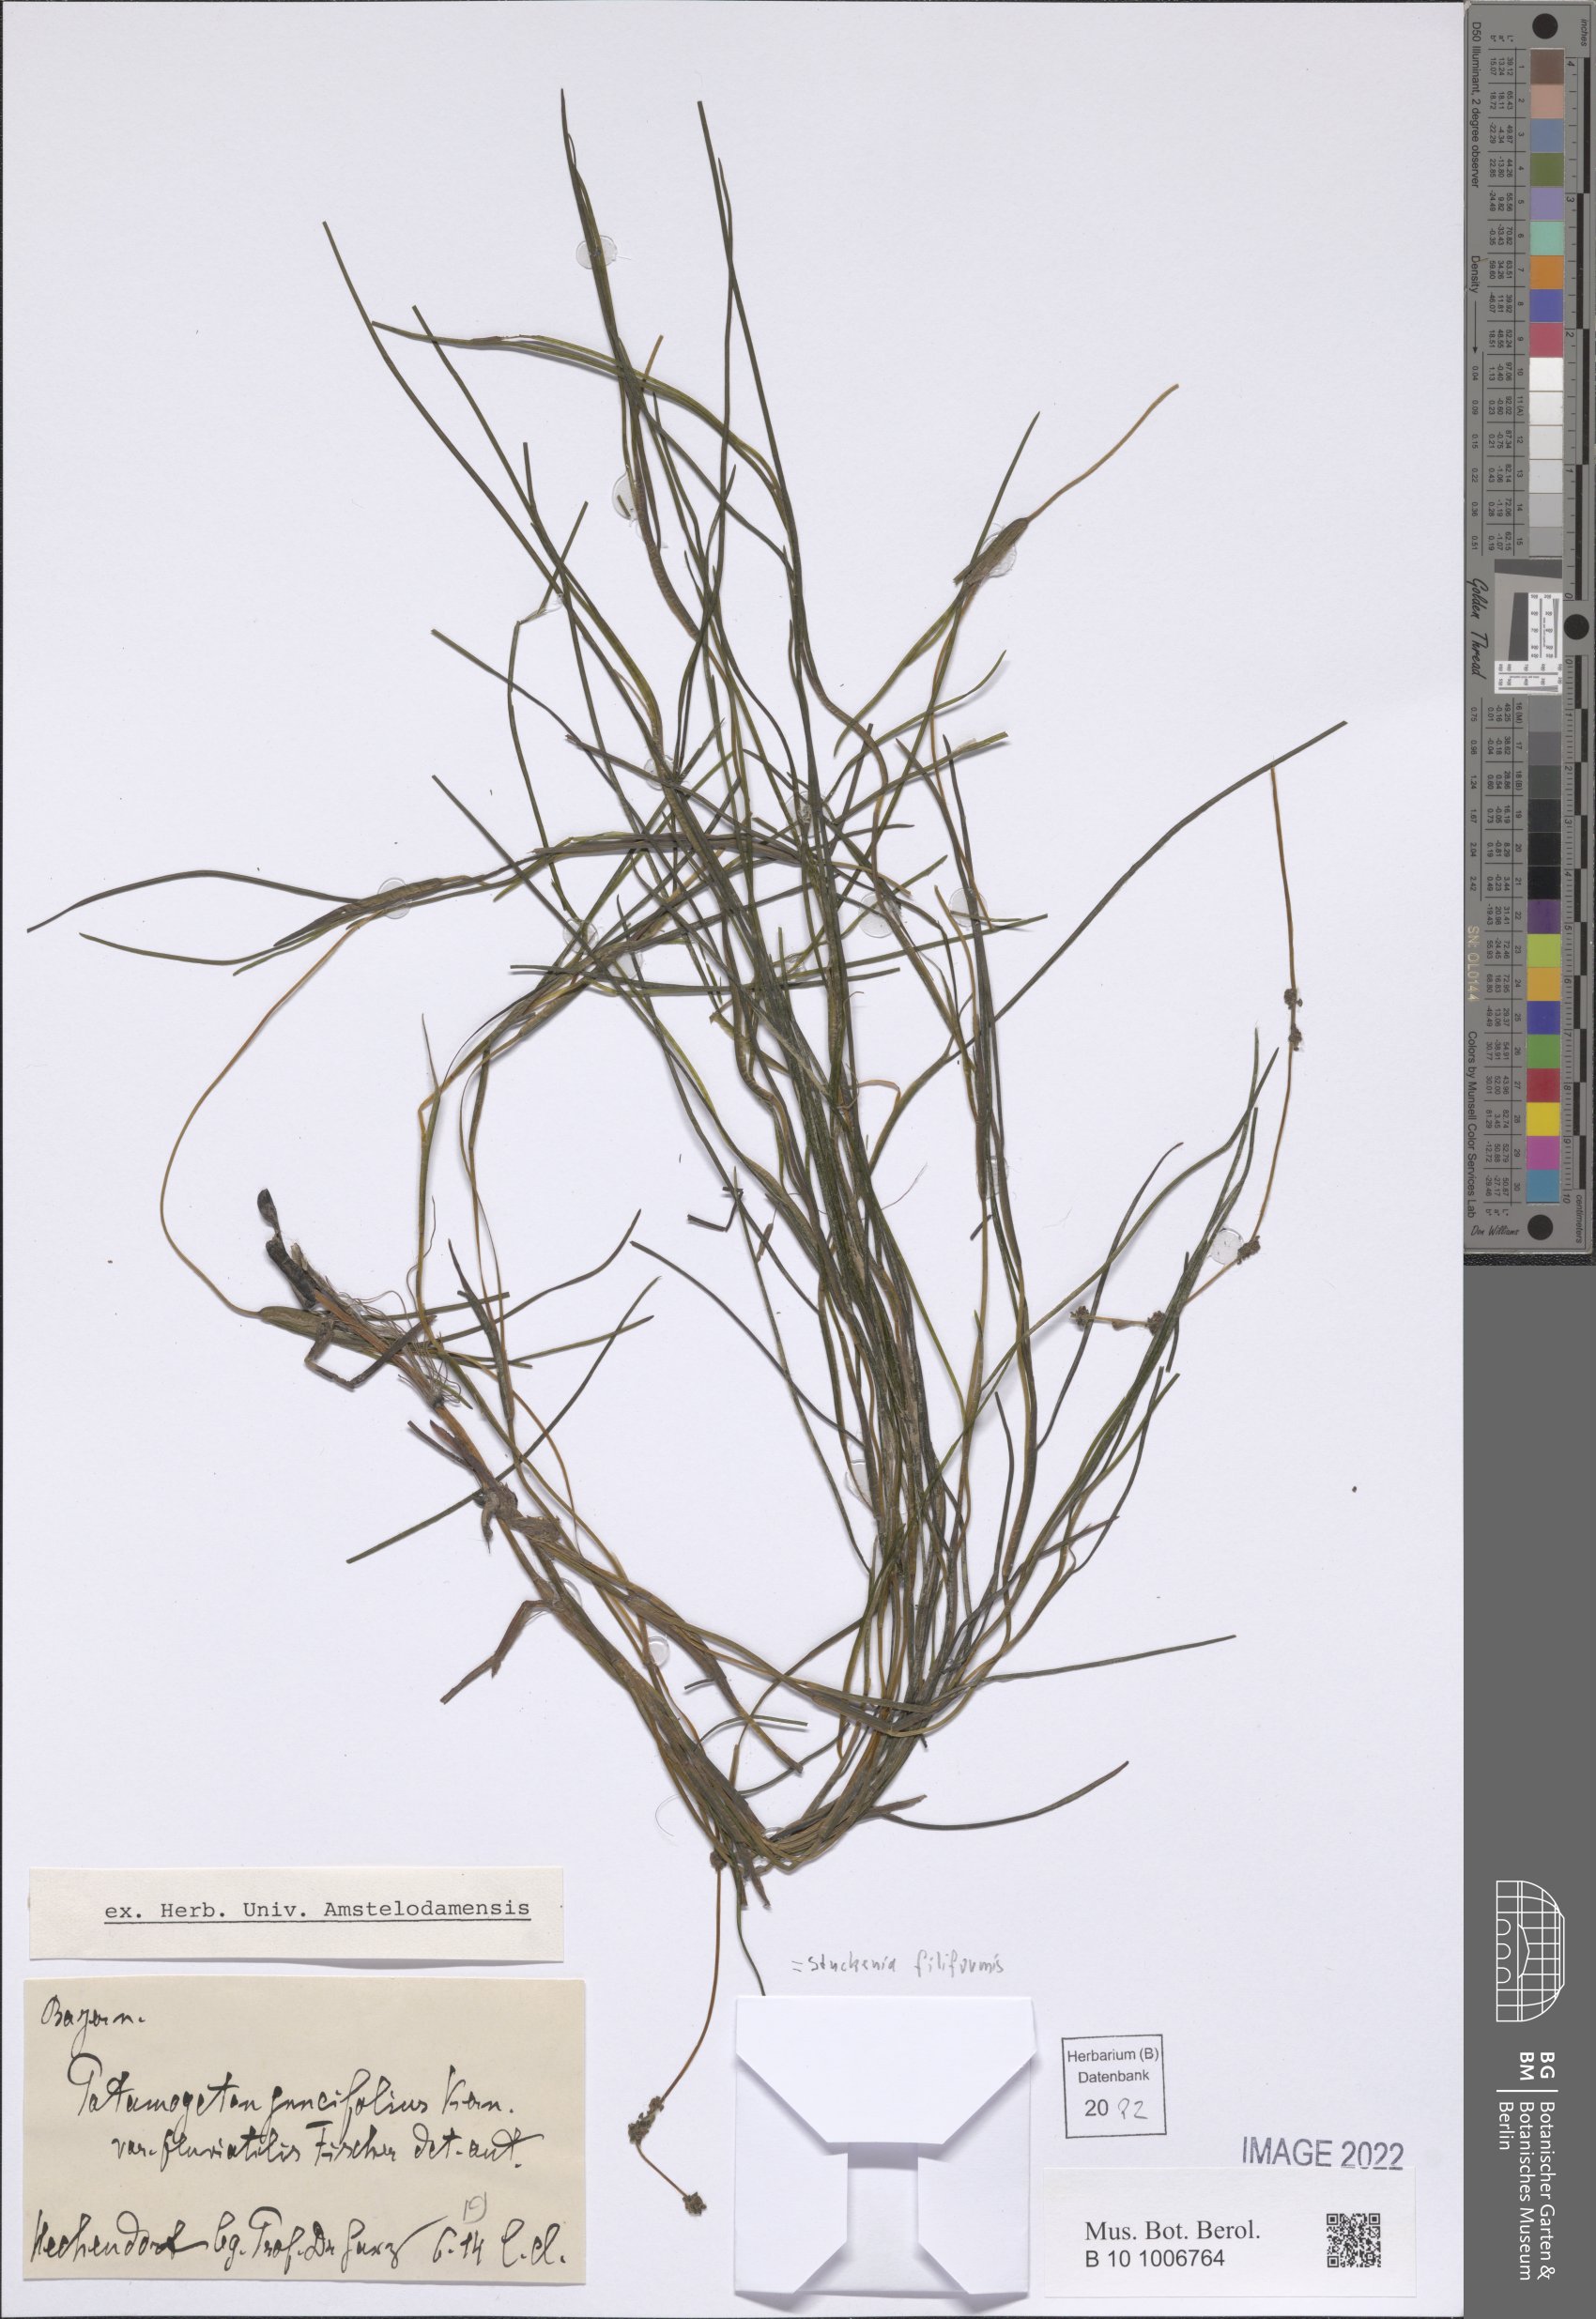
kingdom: Plantae
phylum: Tracheophyta
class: Liliopsida
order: Alismatales
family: Potamogetonaceae
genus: Stuckenia
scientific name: Stuckenia filiformis
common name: Alpine thread-leaved pondweed
